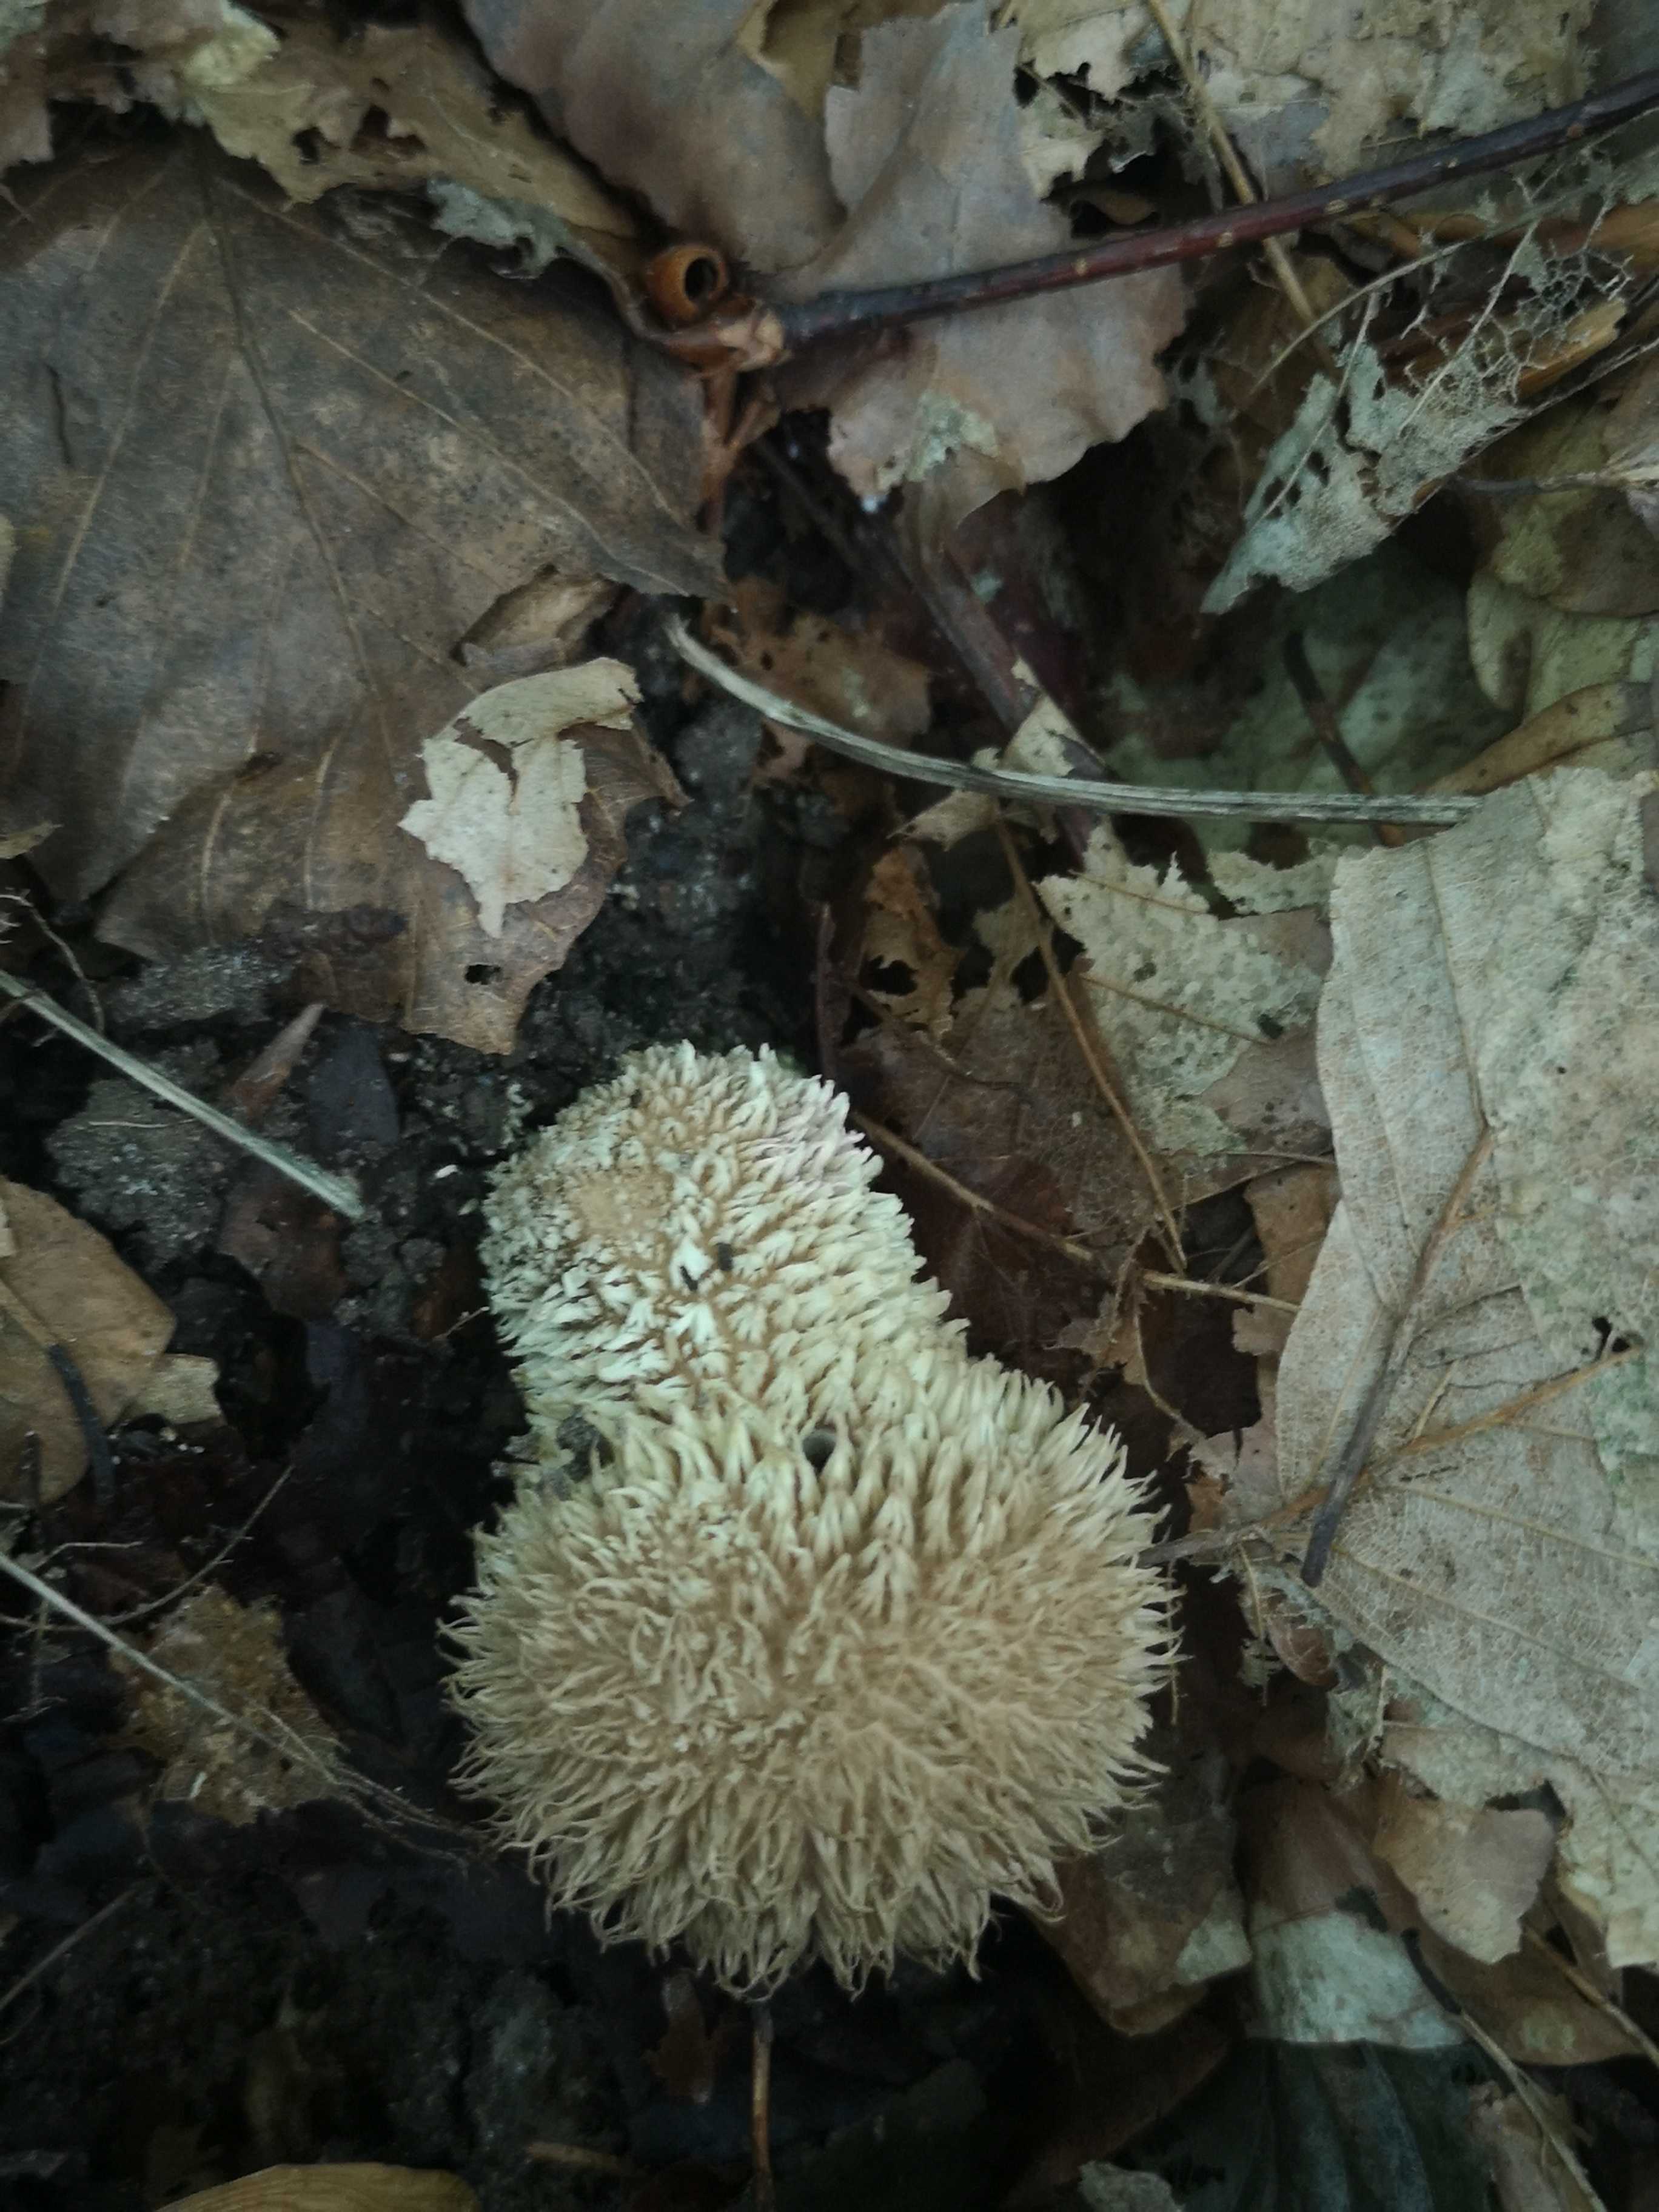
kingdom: Fungi
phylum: Basidiomycota
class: Agaricomycetes
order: Agaricales
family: Lycoperdaceae
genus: Lycoperdon
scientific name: Lycoperdon echinatum
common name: pindsvine-støvbold
